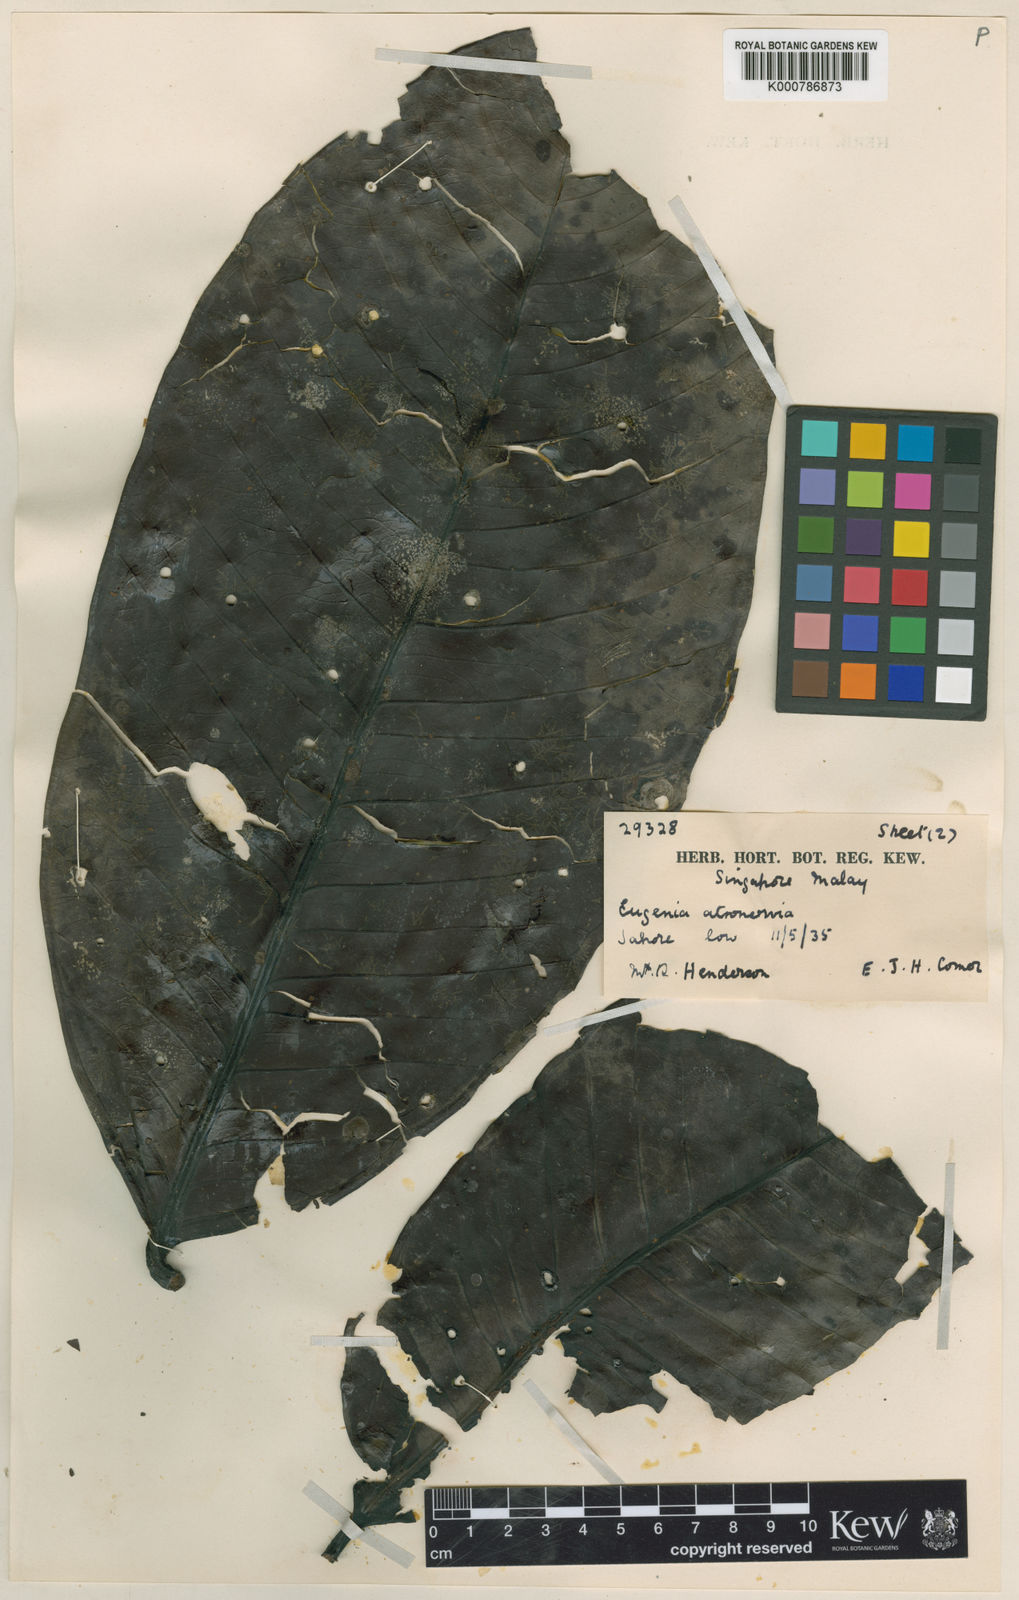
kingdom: Plantae
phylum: Tracheophyta
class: Magnoliopsida
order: Myrtales
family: Myrtaceae
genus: Syzygium
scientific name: Syzygium
